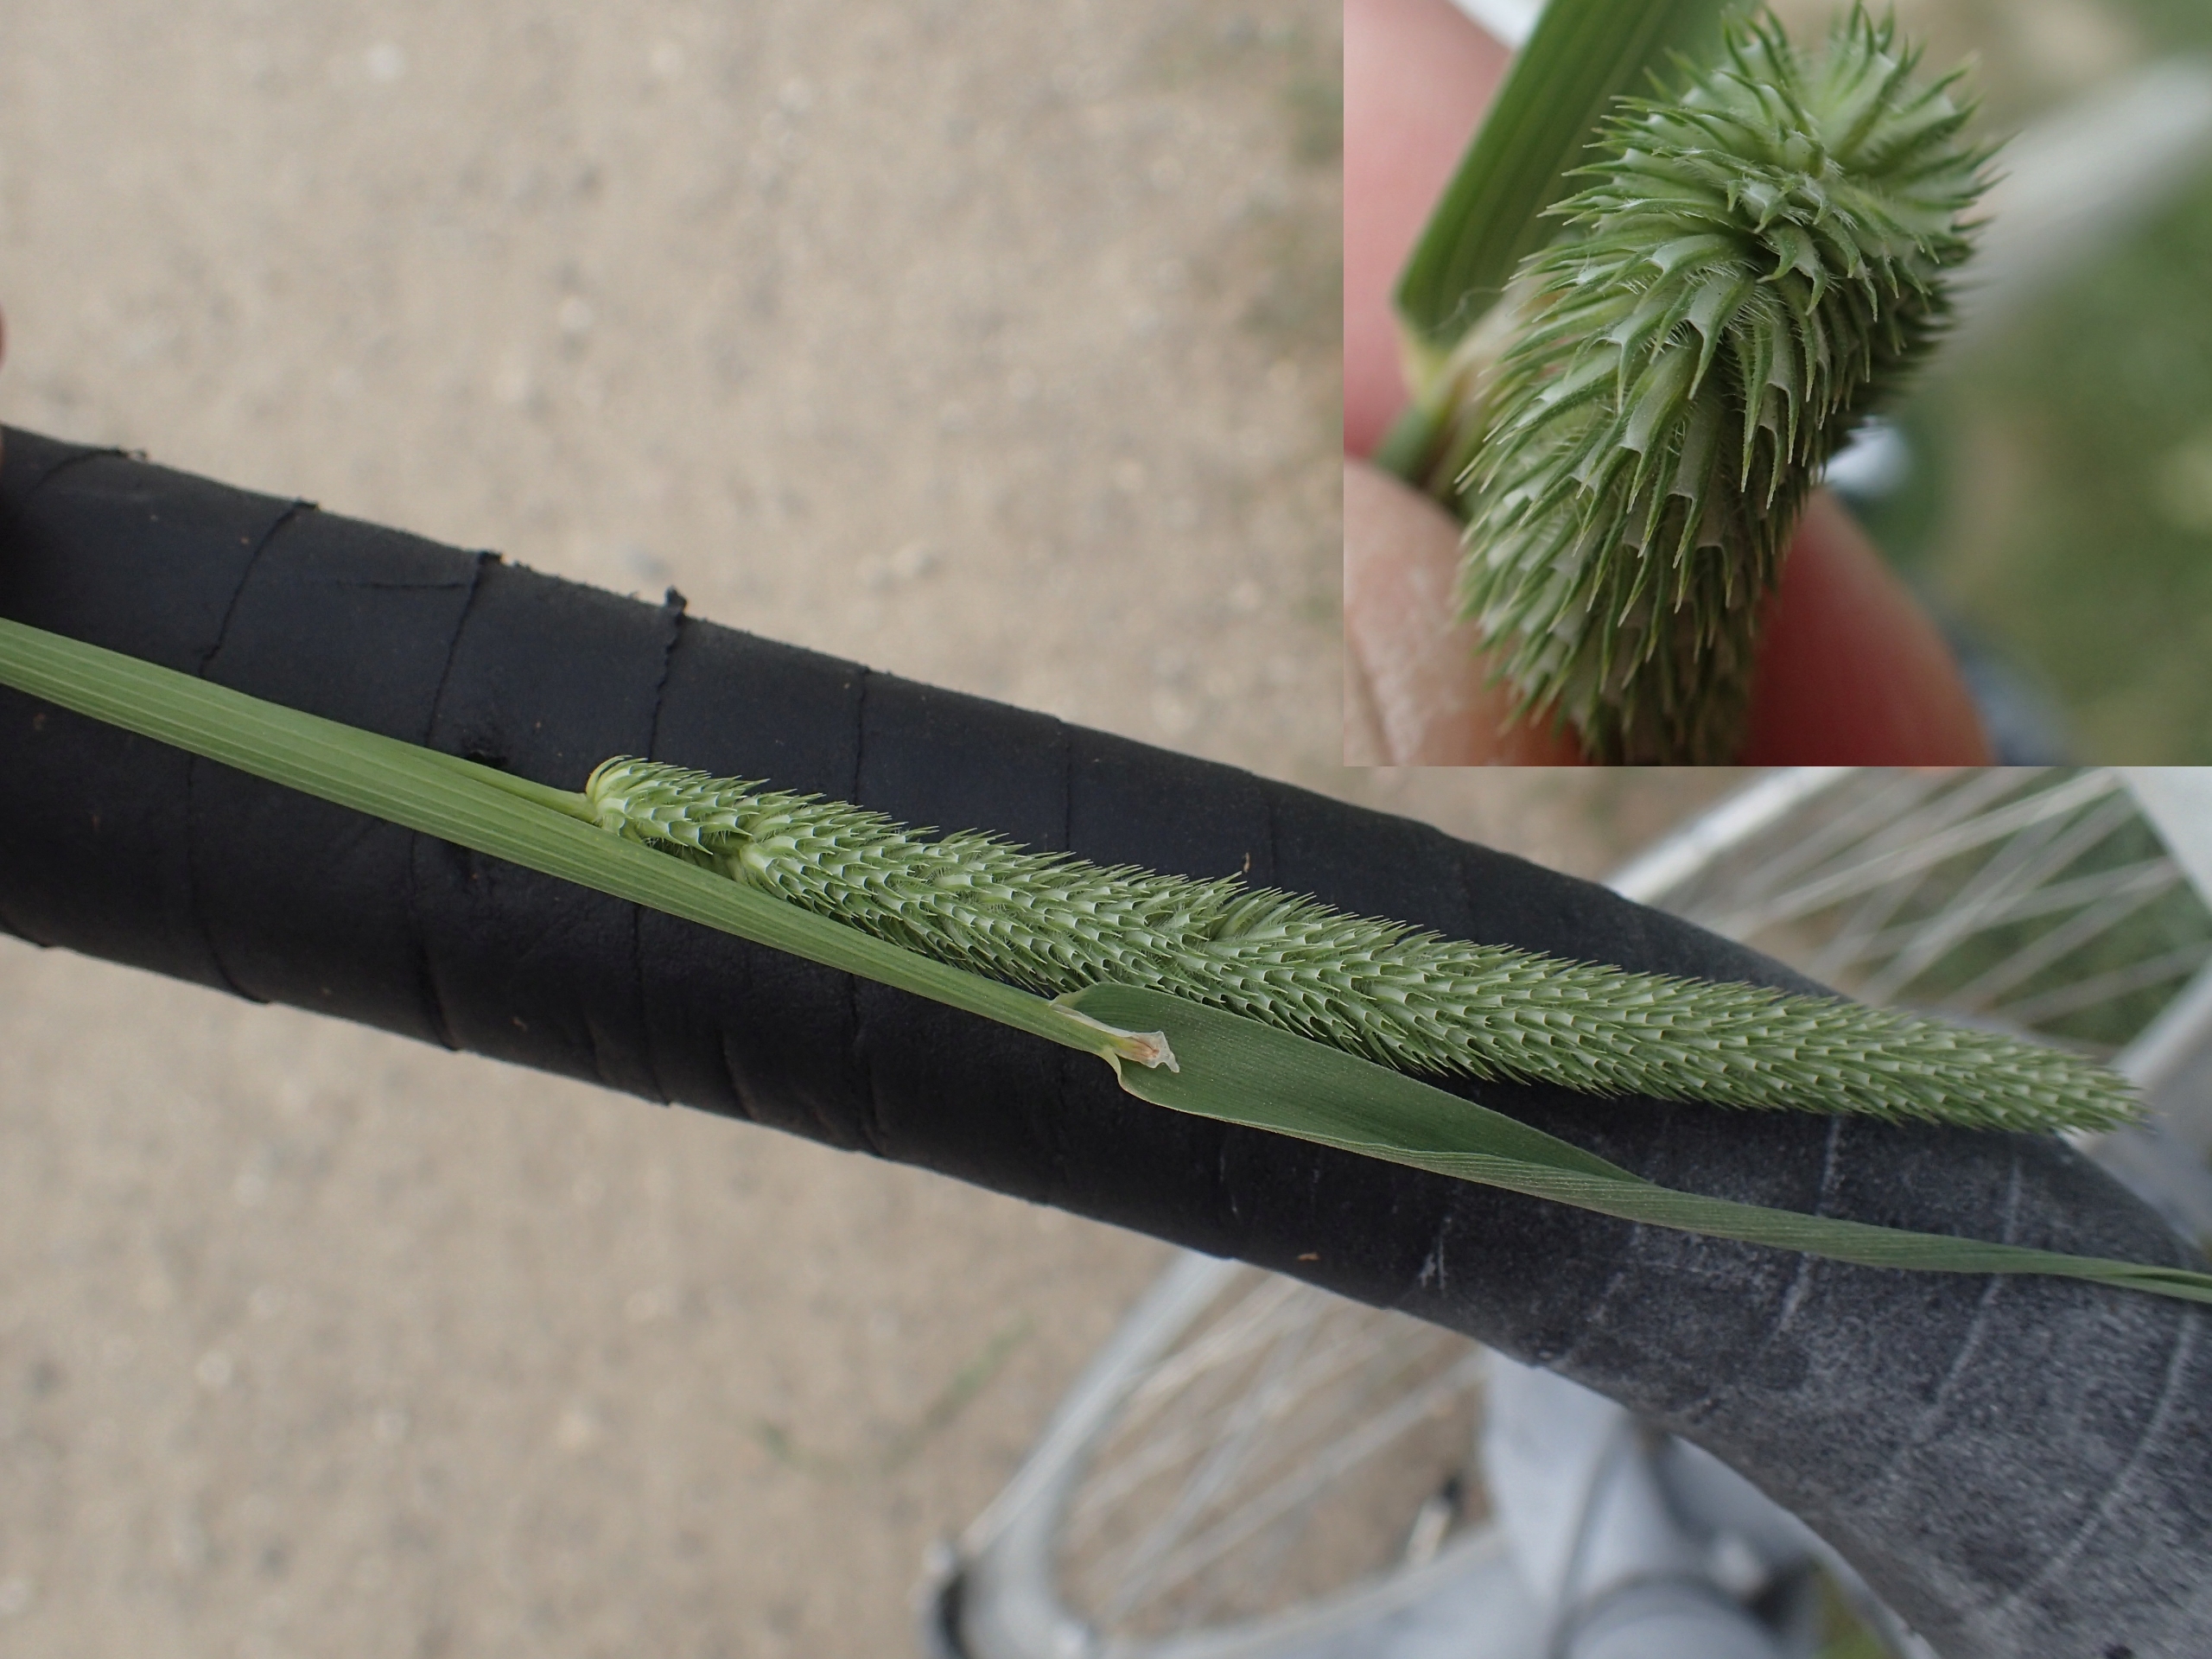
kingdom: Plantae
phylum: Tracheophyta
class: Liliopsida
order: Poales
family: Poaceae
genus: Phleum
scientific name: Phleum pratense
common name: Eng-rottehale
